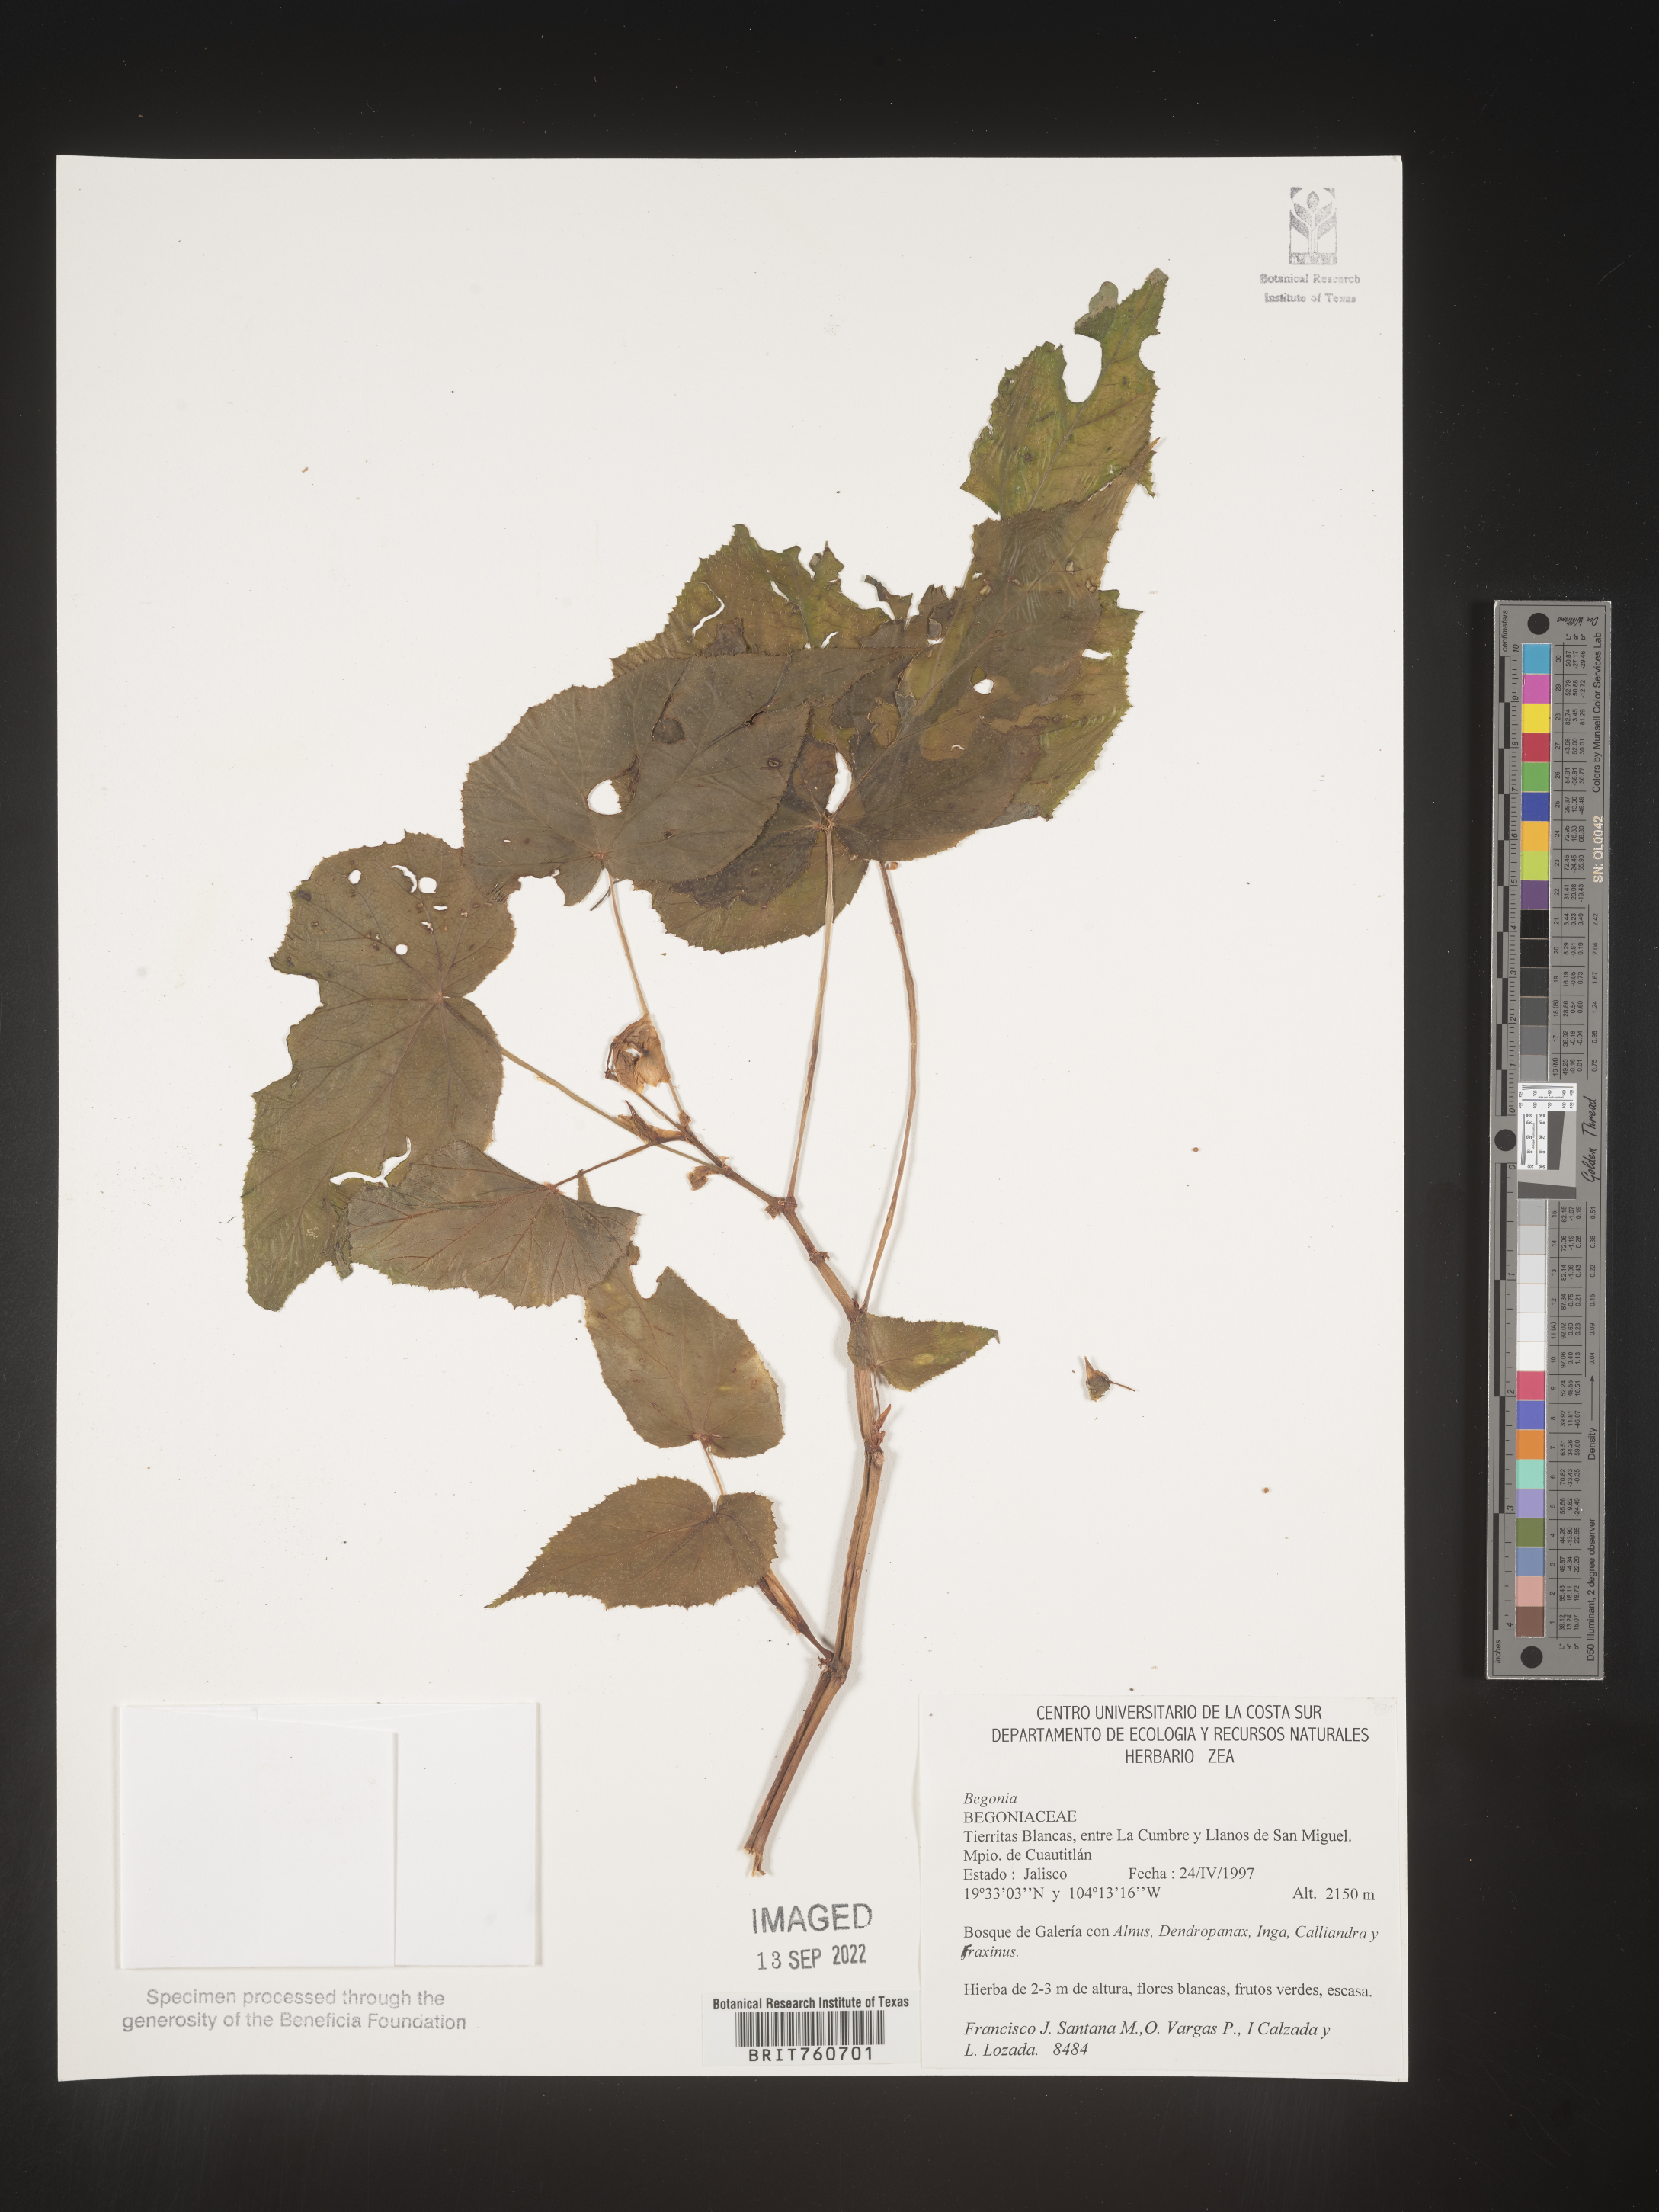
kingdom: Plantae
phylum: Tracheophyta
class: Magnoliopsida
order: Cucurbitales
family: Begoniaceae
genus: Begonia
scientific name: Begonia
